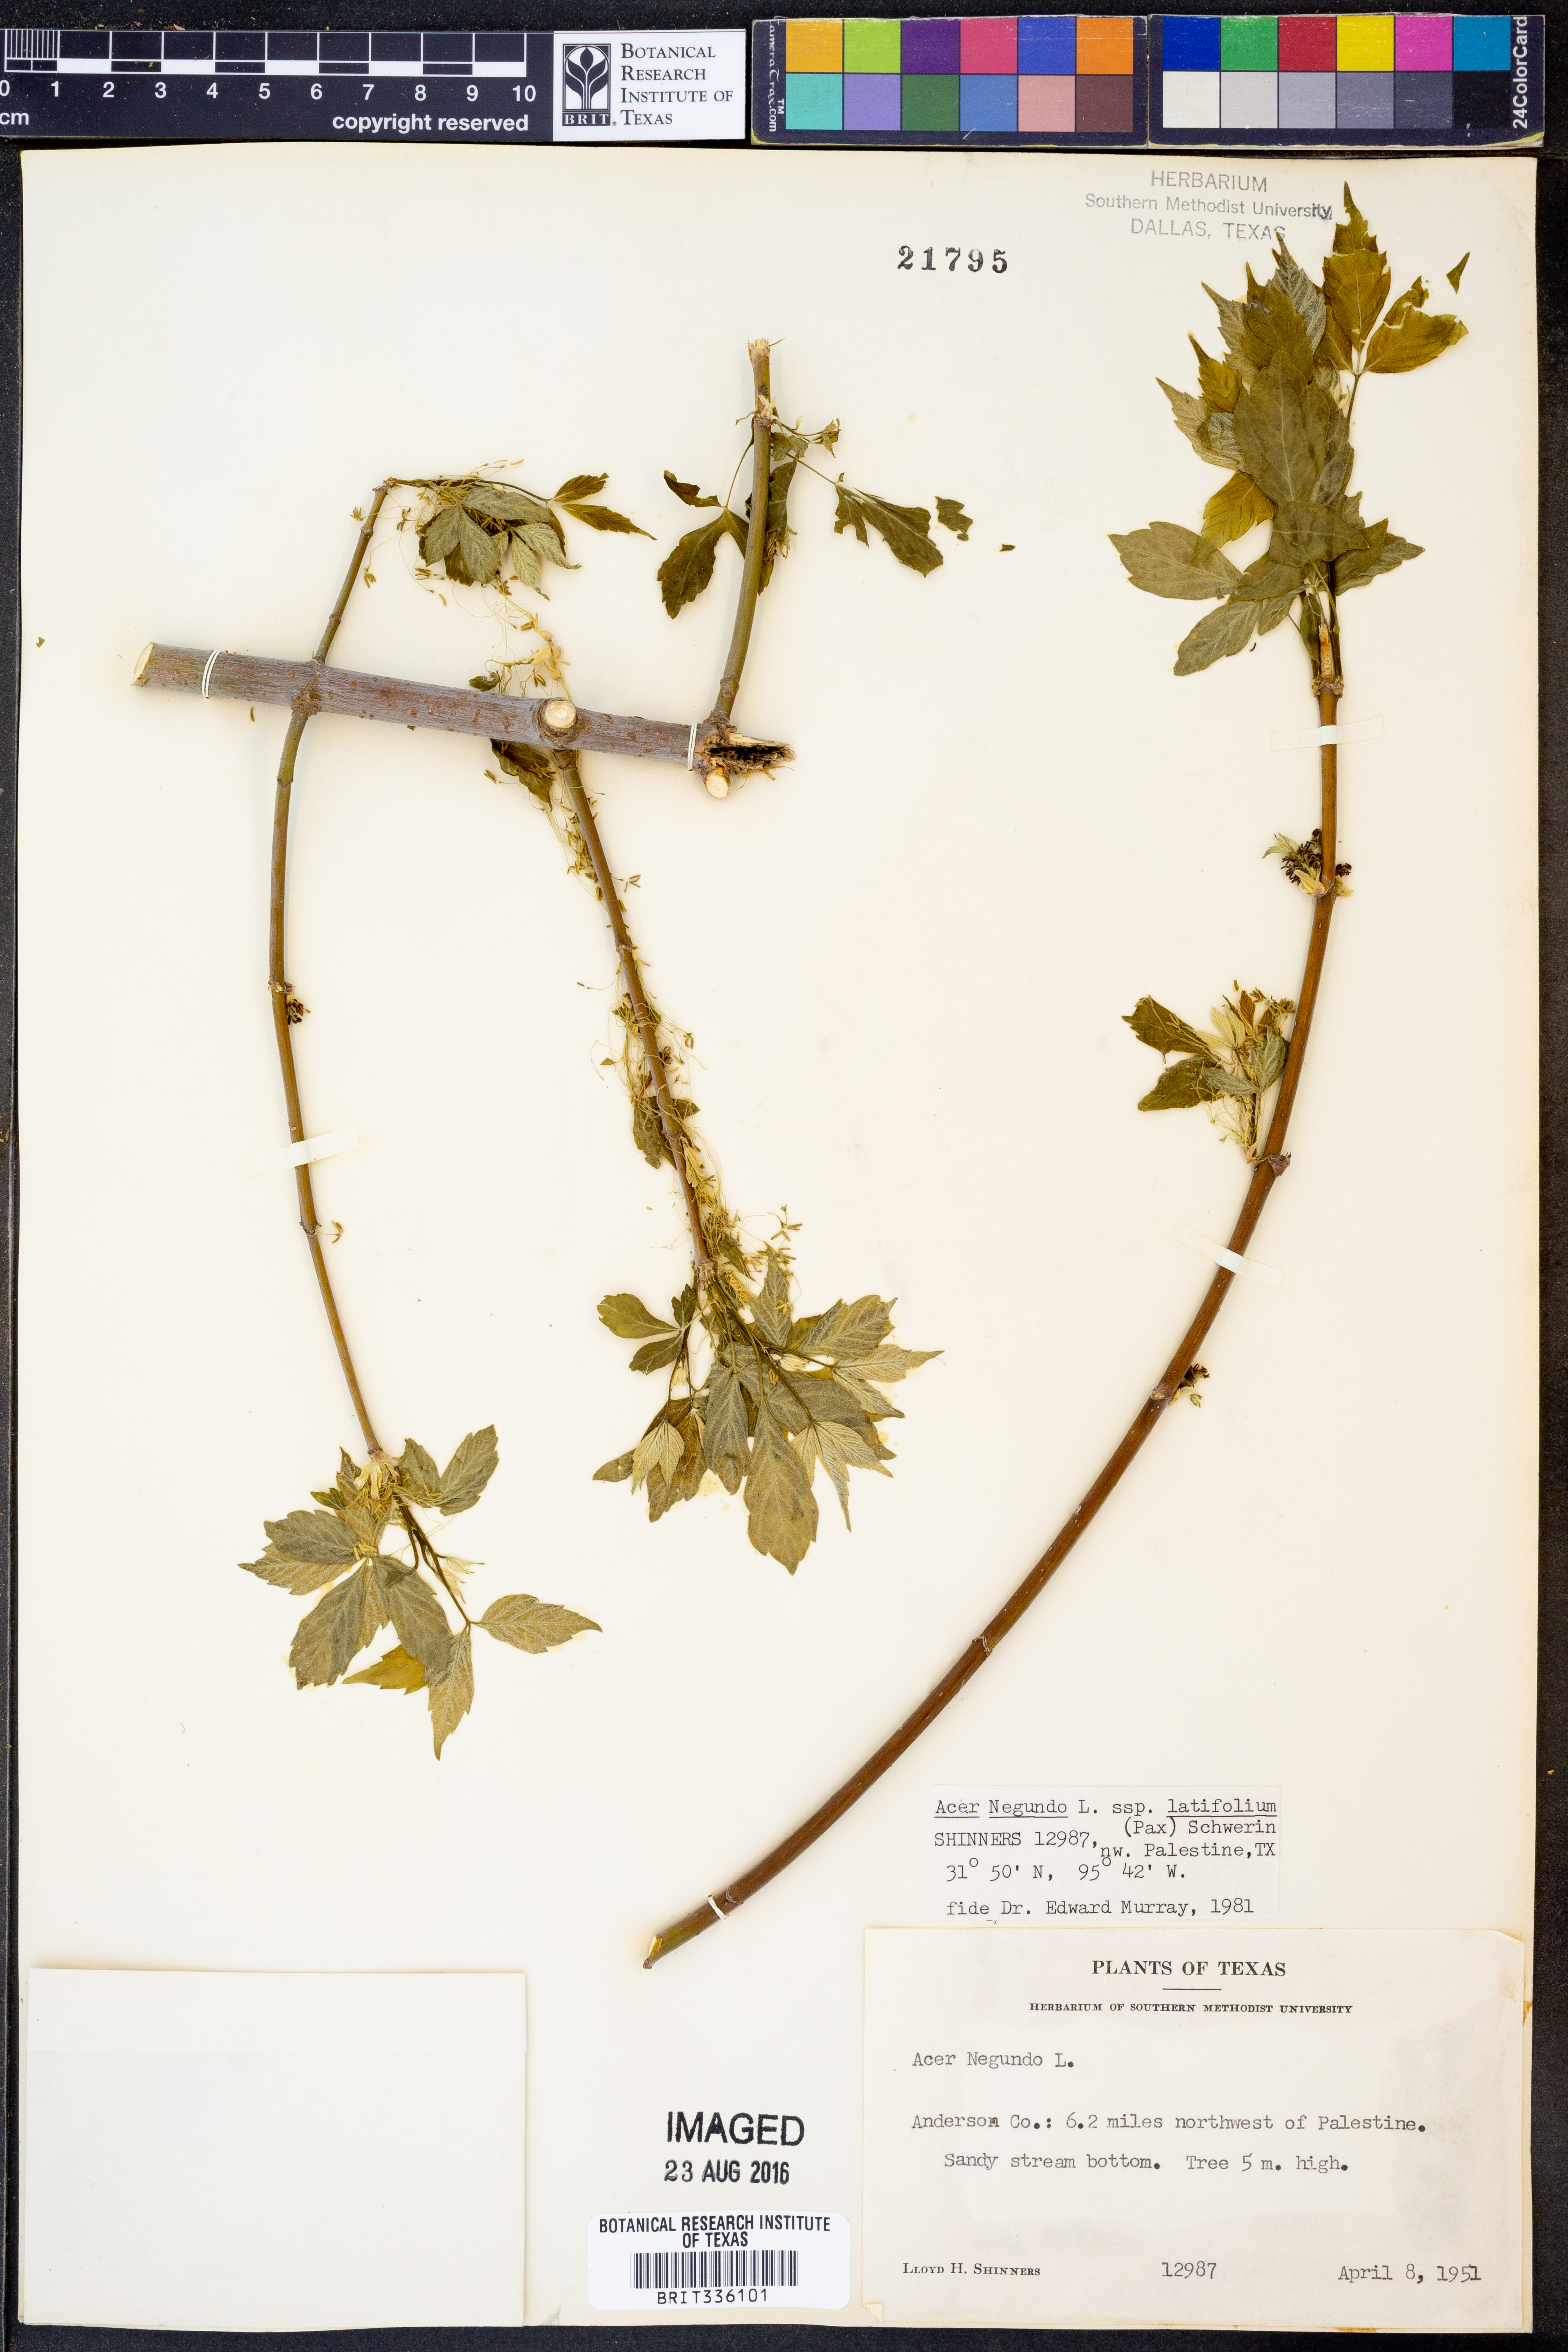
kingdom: Plantae
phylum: Tracheophyta
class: Magnoliopsida
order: Sapindales
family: Sapindaceae
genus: Acer
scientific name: Acer negundo
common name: Ashleaf maple
